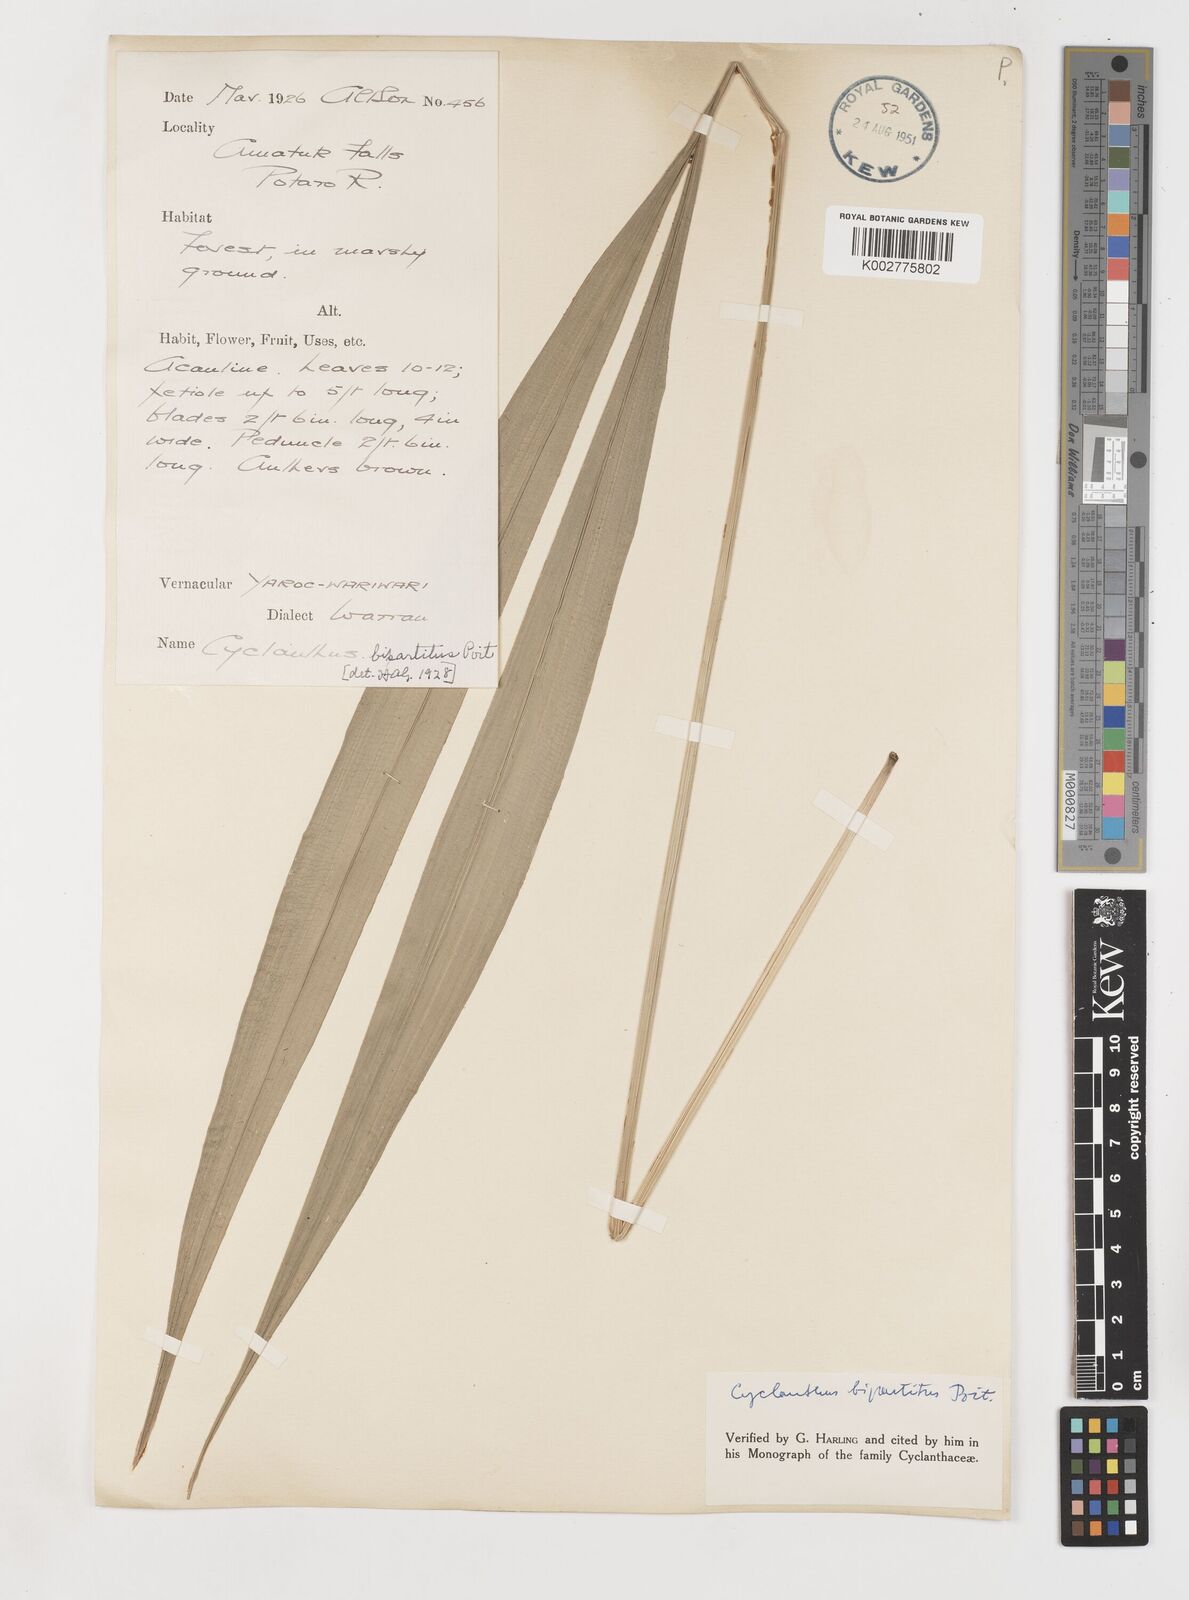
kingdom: Plantae
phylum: Tracheophyta
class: Liliopsida
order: Pandanales
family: Cyclanthaceae
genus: Cyclanthus
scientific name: Cyclanthus bipartitus
